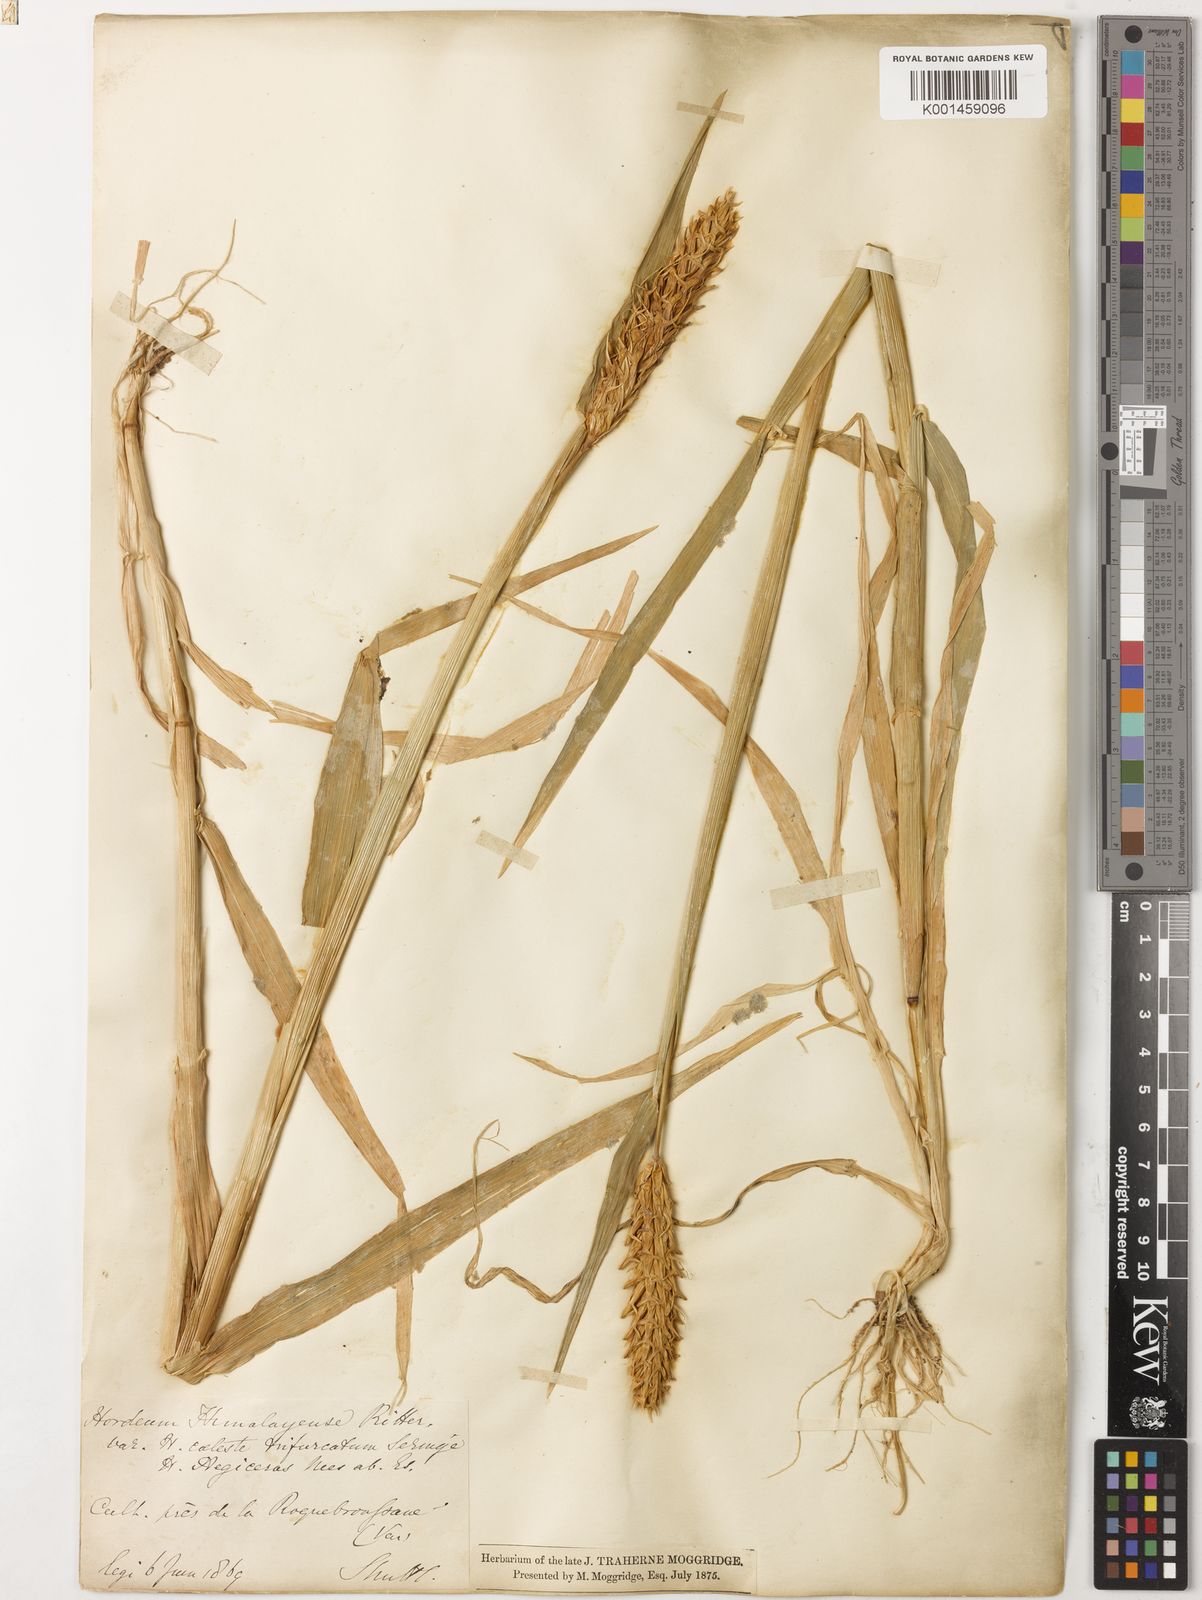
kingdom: Plantae
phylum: Tracheophyta
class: Liliopsida
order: Poales
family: Poaceae
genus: Hordeum
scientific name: Hordeum vulgare
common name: Common barley
